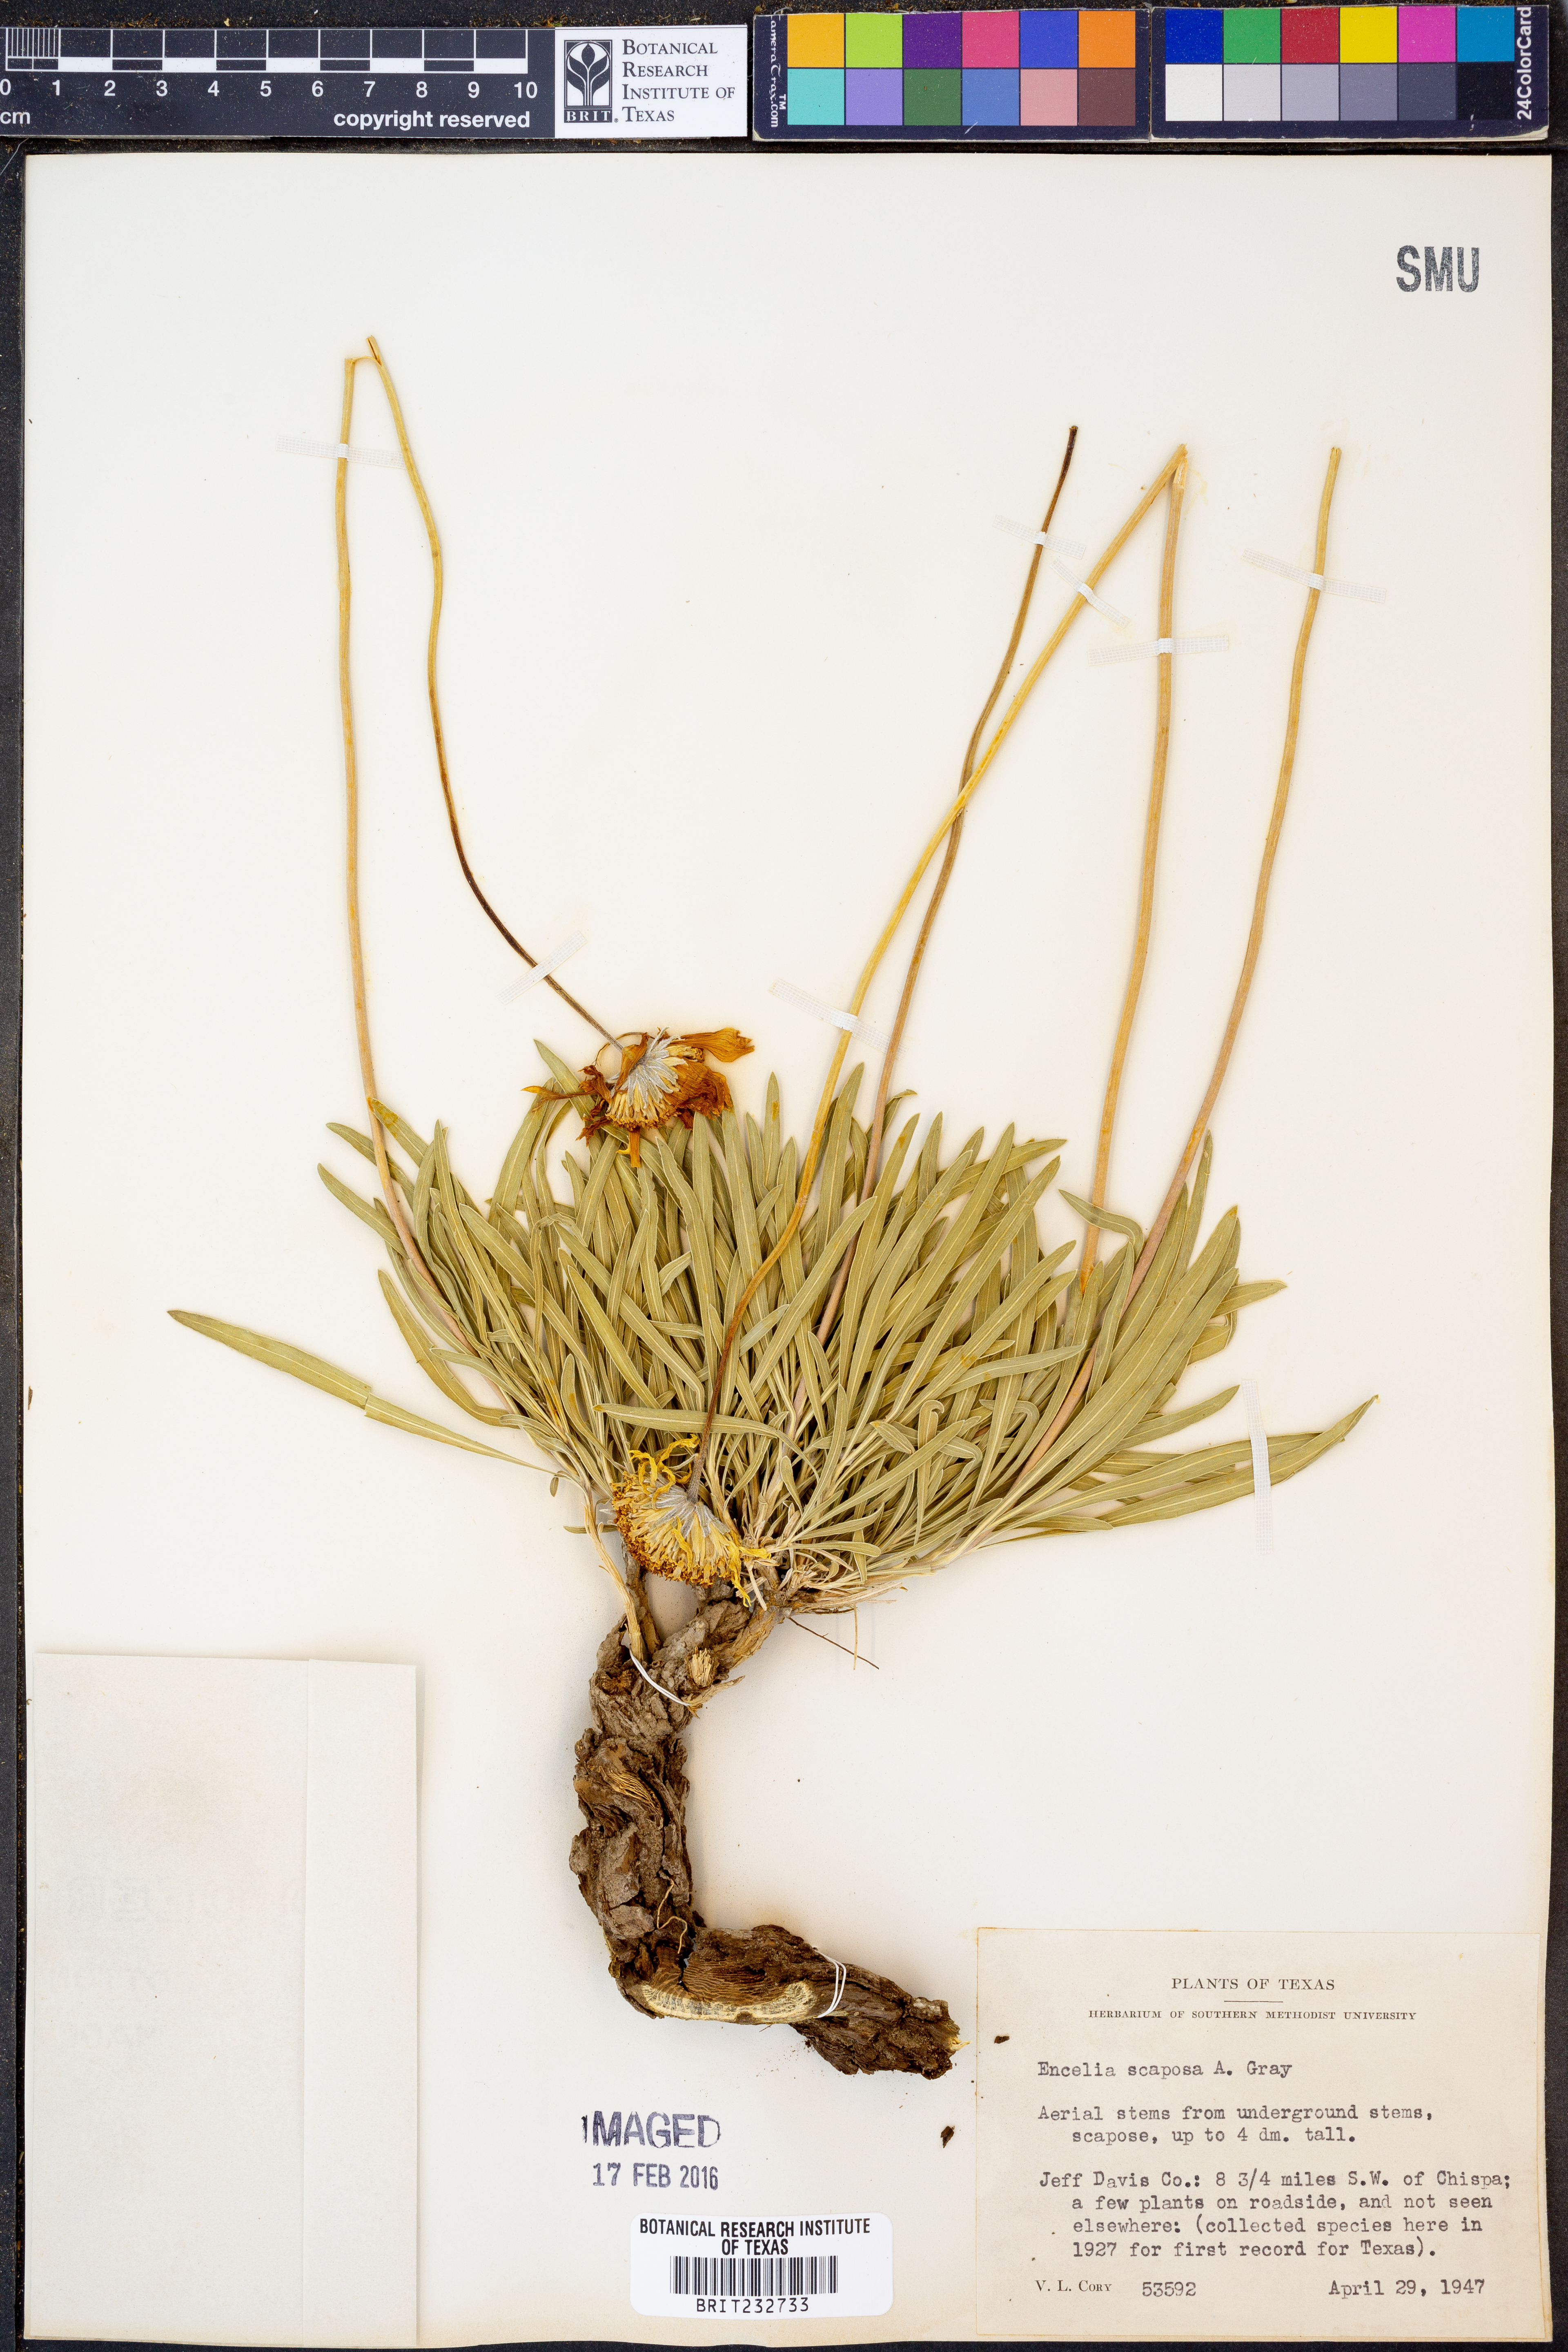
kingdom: Plantae
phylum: Tracheophyta
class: Magnoliopsida
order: Asterales
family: Asteraceae
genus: Encelia
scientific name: Encelia scaposa
